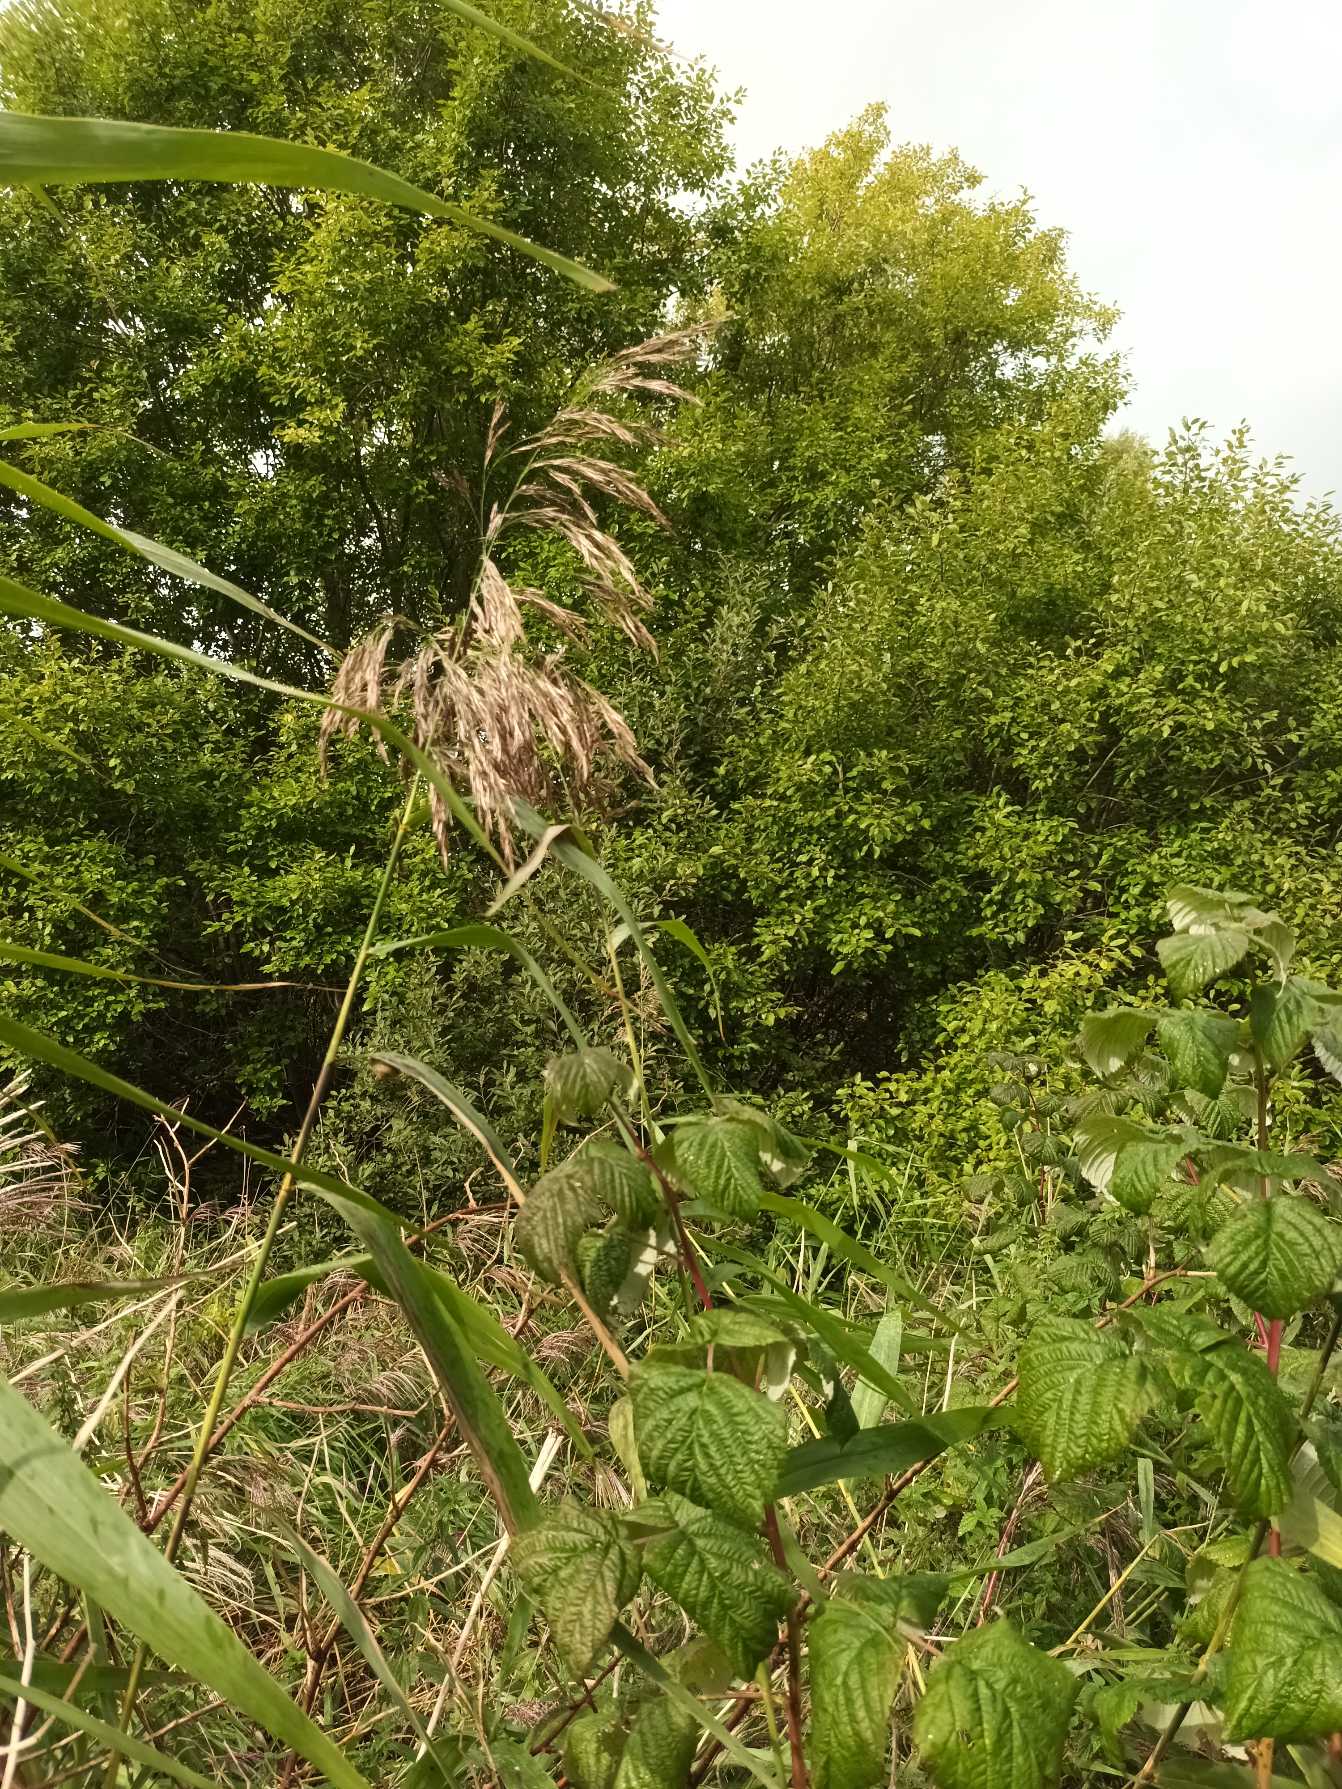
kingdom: Plantae
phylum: Tracheophyta
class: Liliopsida
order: Poales
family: Poaceae
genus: Phragmites
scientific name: Phragmites australis
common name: Tagrør
